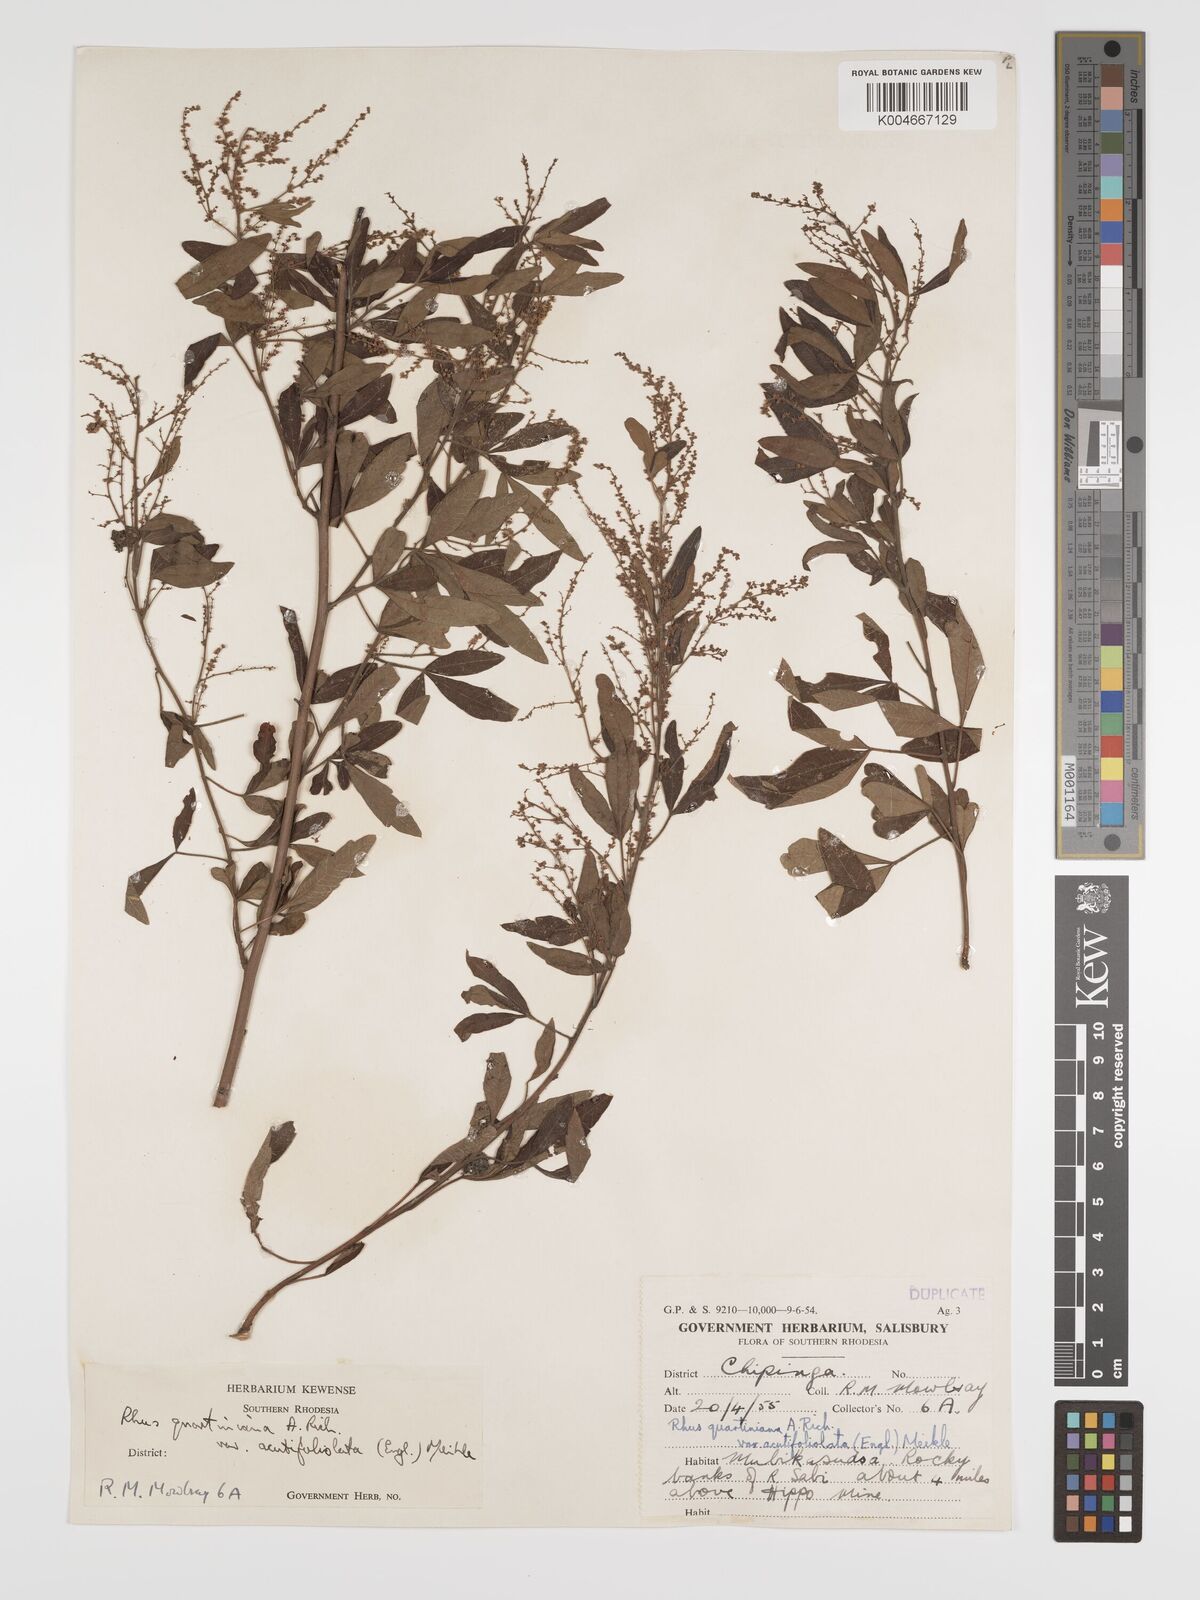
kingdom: Plantae
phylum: Tracheophyta
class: Magnoliopsida
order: Sapindales
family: Anacardiaceae
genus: Searsia
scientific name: Searsia quartiniana
